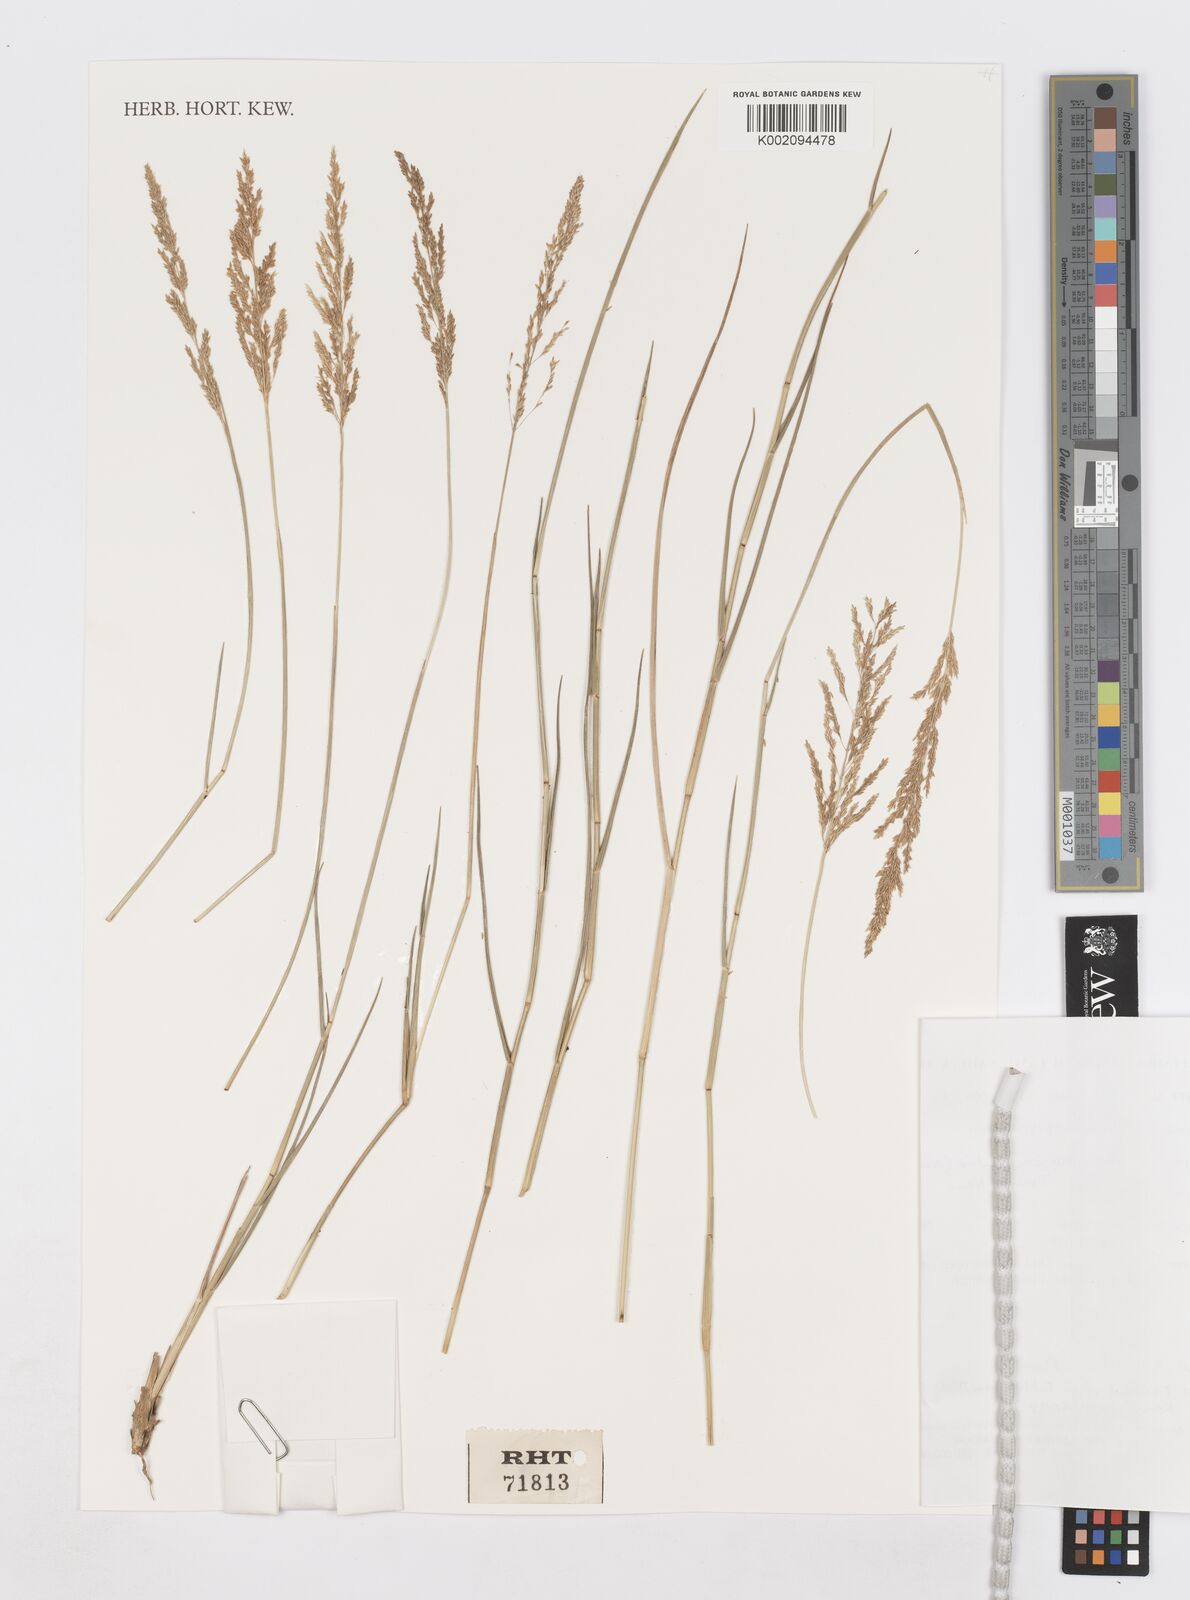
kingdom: Plantae
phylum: Tracheophyta
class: Liliopsida
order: Poales
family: Poaceae
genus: Sporobolus
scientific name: Sporobolus ioclados
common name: Pan dropseed
